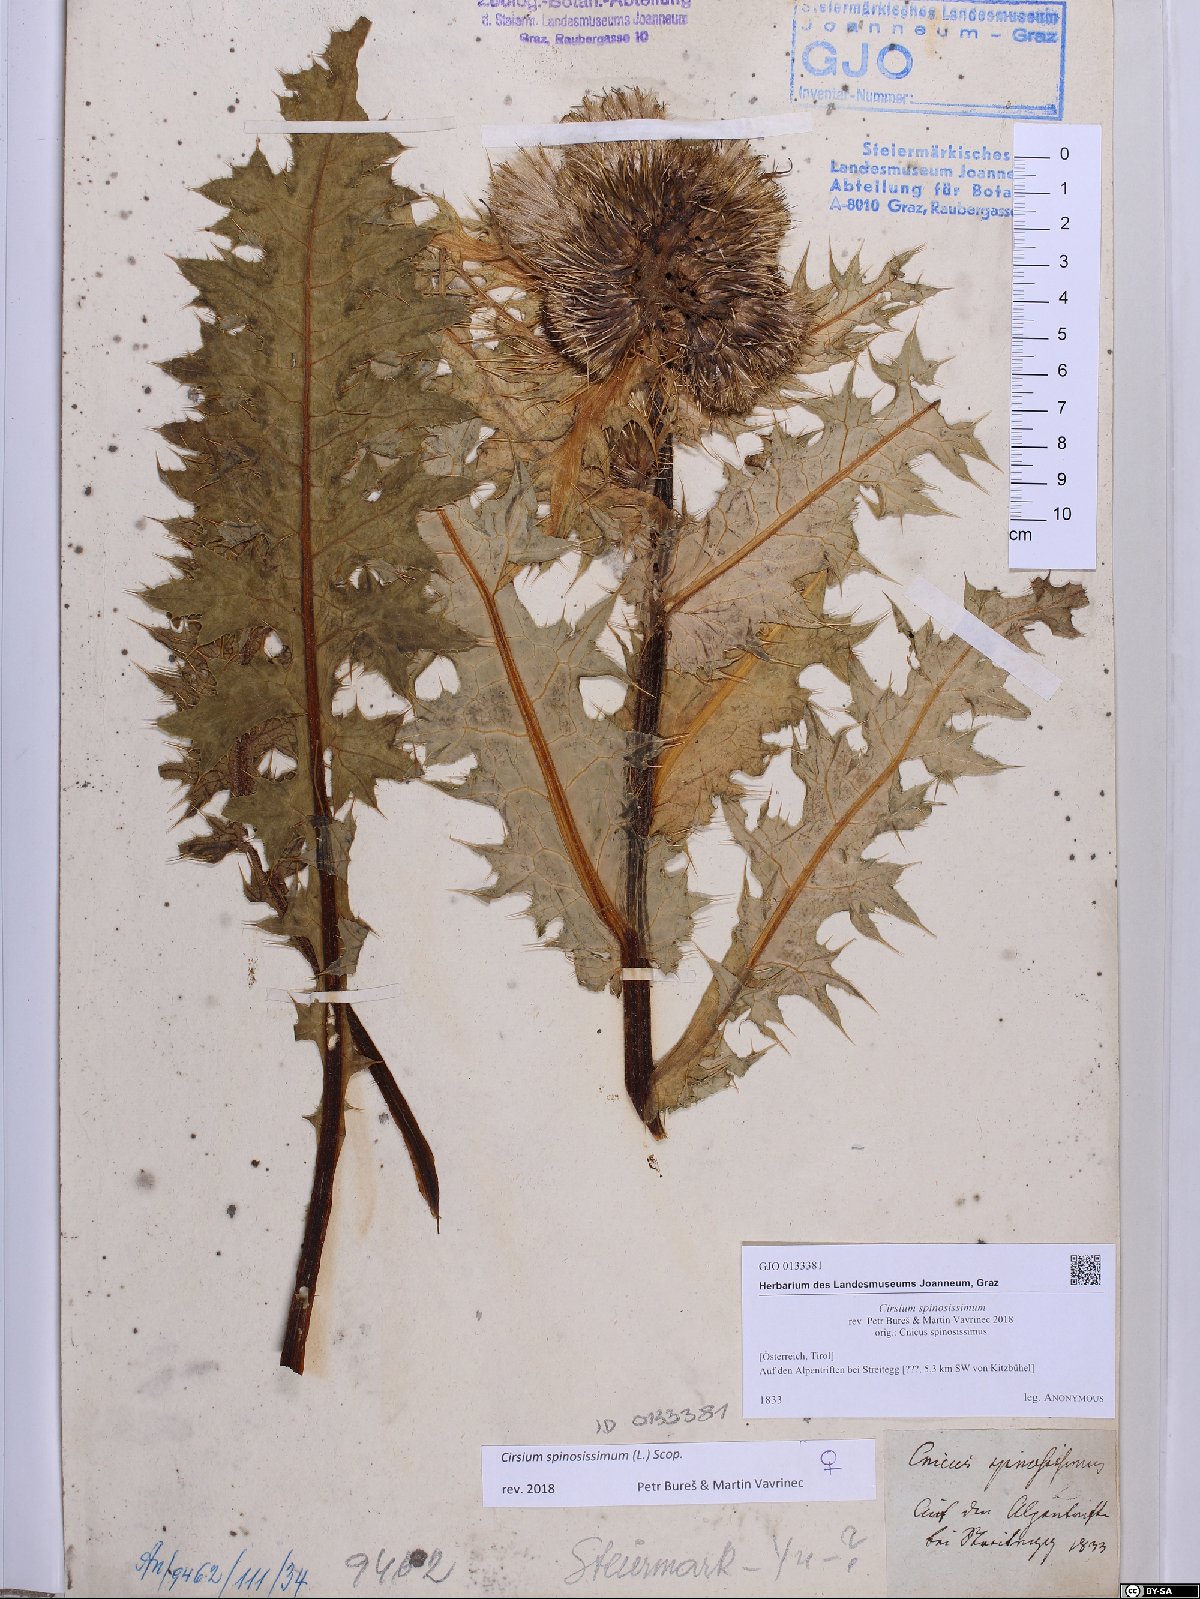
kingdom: Plantae
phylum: Tracheophyta
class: Magnoliopsida
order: Asterales
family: Asteraceae
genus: Cirsium
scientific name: Cirsium spinosissimum
